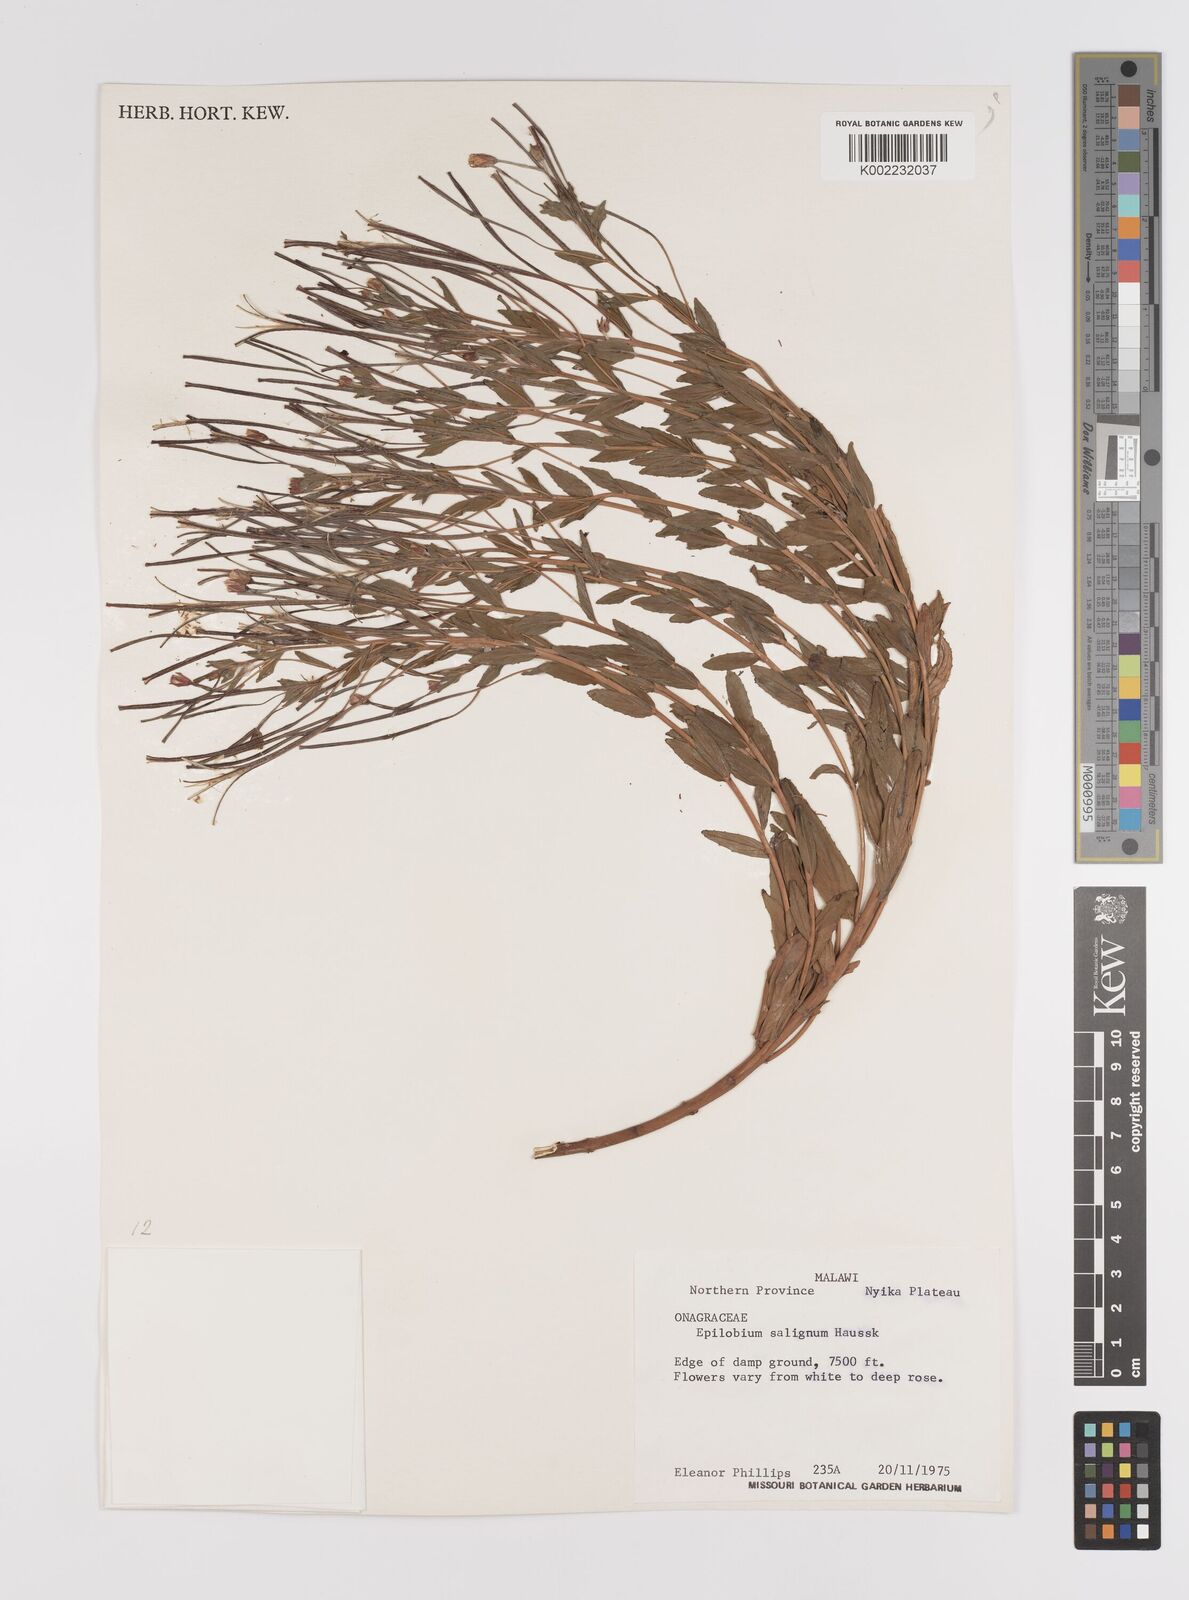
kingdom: Plantae
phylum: Tracheophyta
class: Magnoliopsida
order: Myrtales
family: Onagraceae
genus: Epilobium
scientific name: Epilobium salignum
